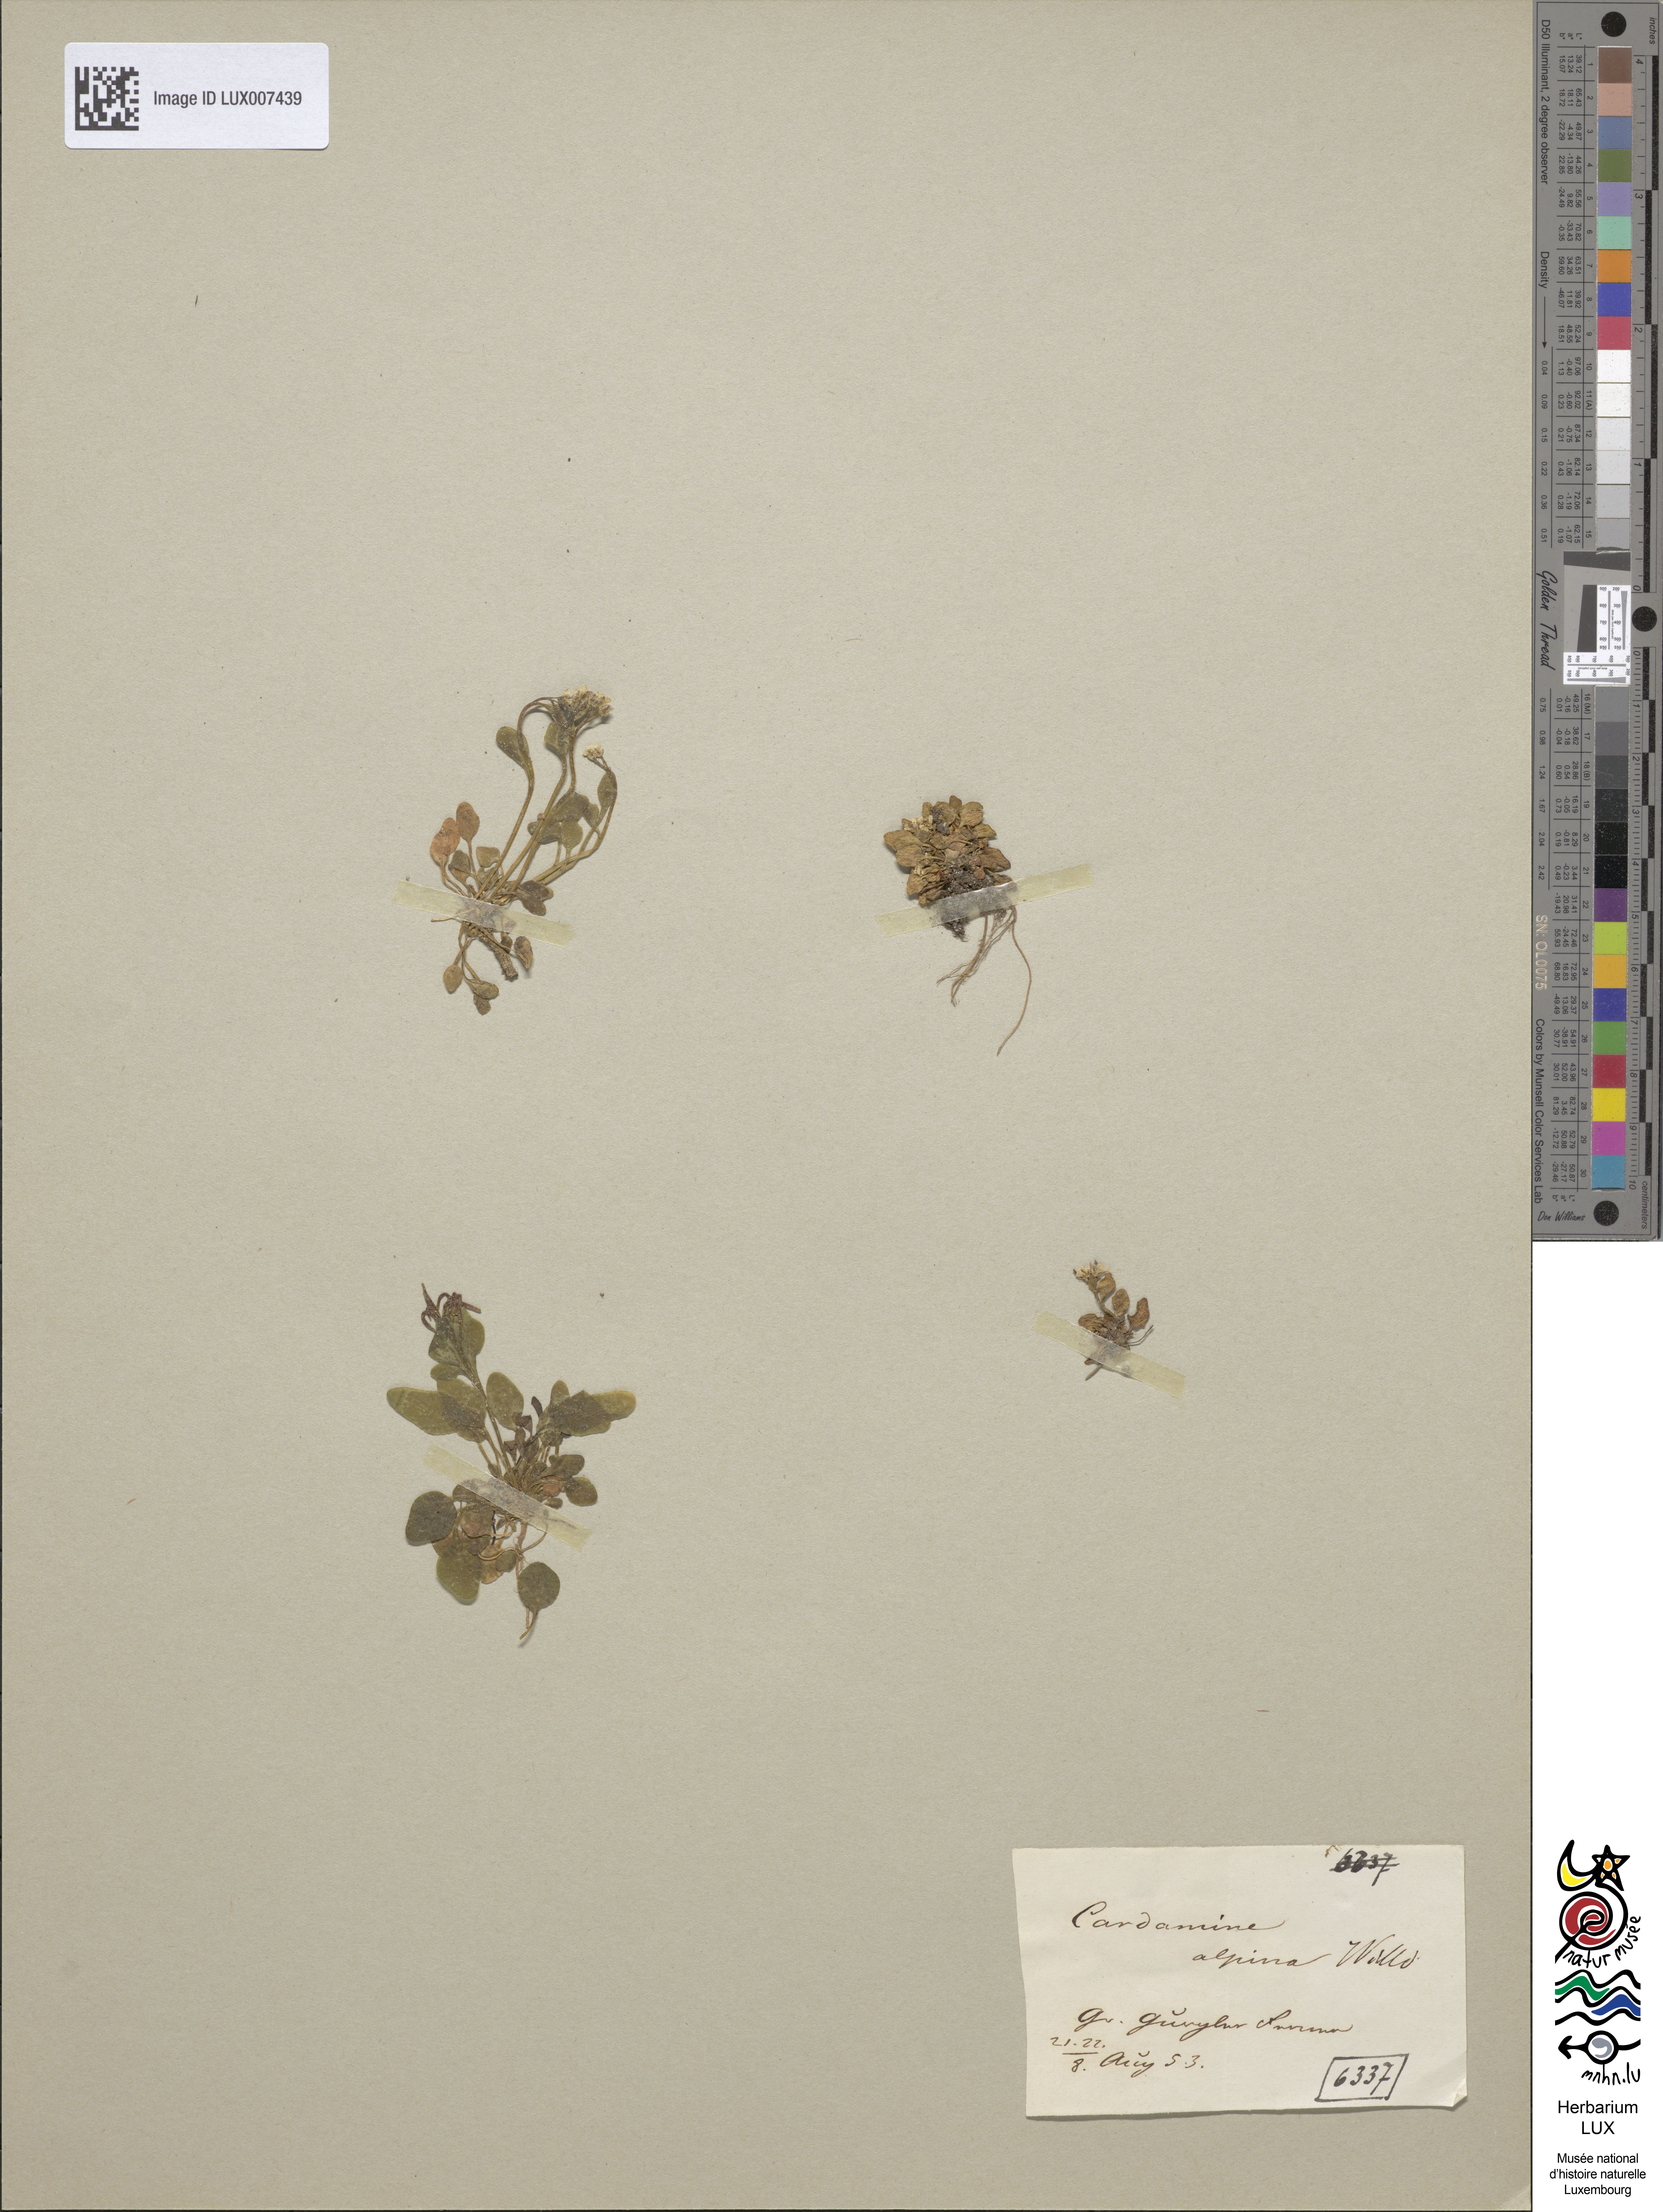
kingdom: Plantae
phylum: Tracheophyta
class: Magnoliopsida
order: Brassicales
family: Brassicaceae
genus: Cardamine
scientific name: Cardamine bellidifolia
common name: Alpine bittercress
